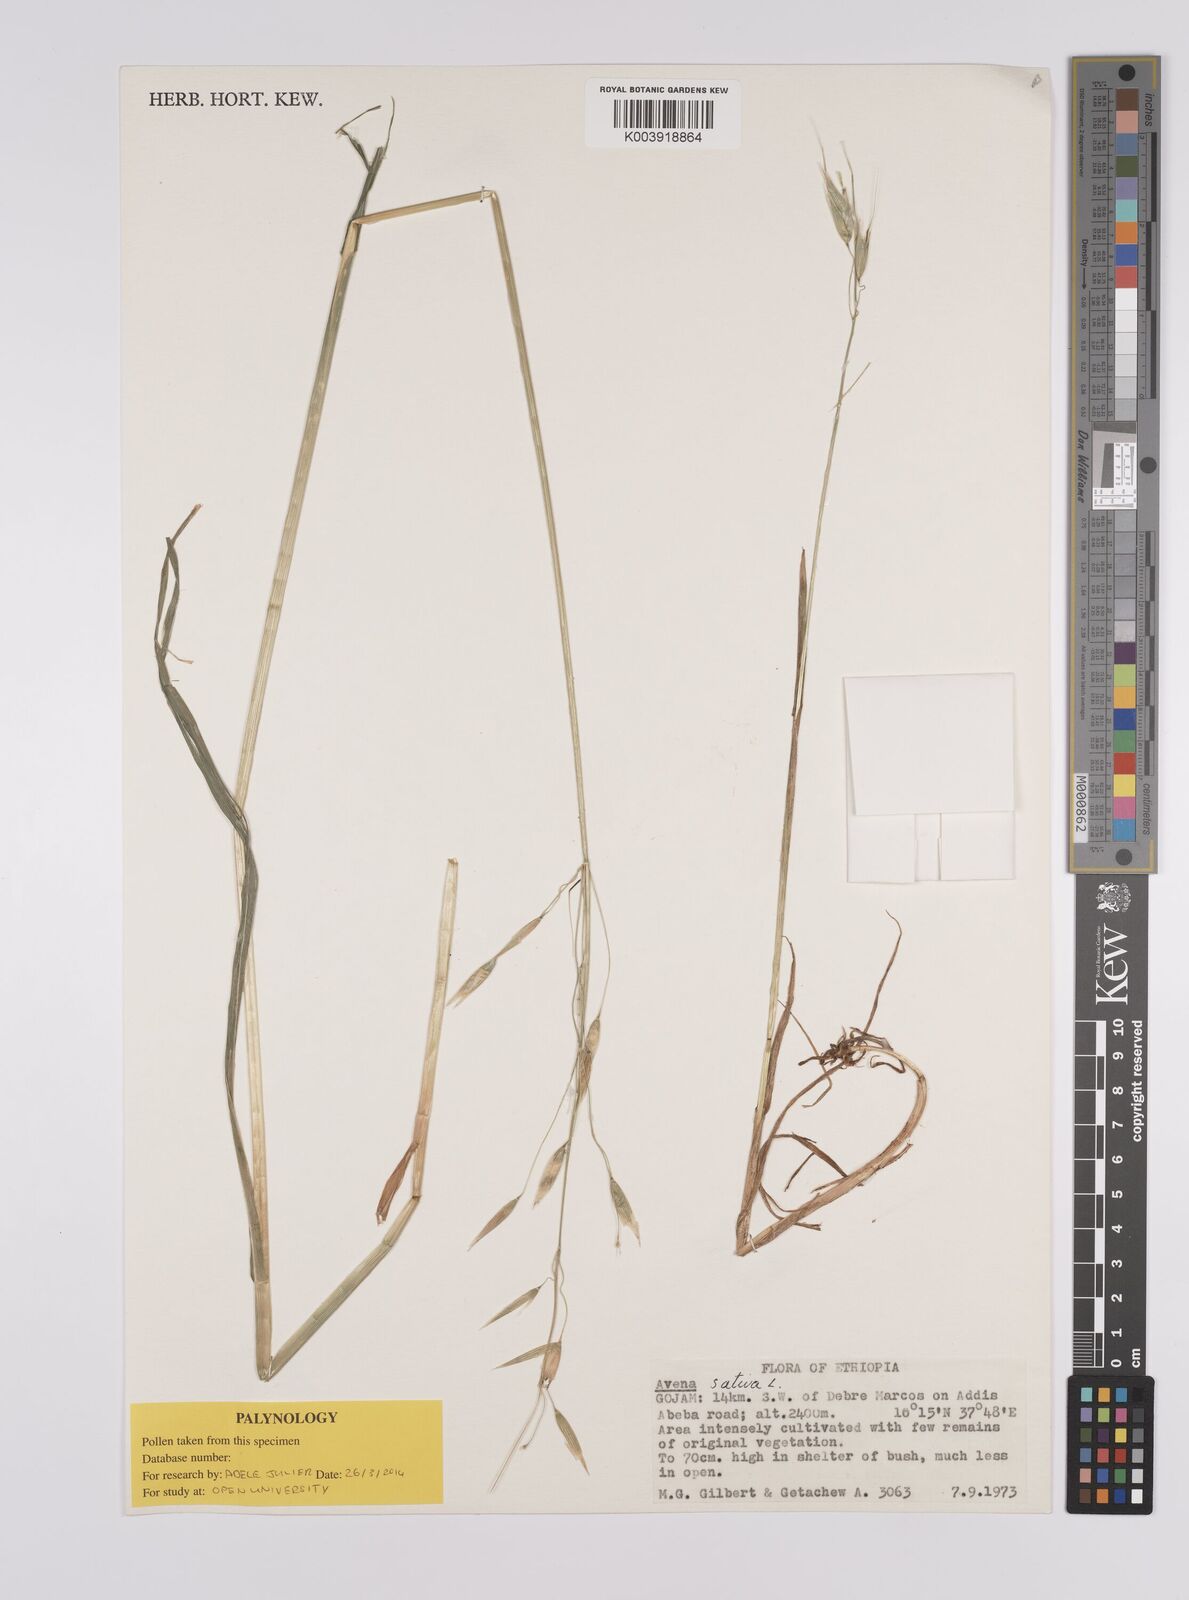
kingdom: Plantae
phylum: Tracheophyta
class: Liliopsida
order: Poales
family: Poaceae
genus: Avena
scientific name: Avena sativa
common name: Oat
